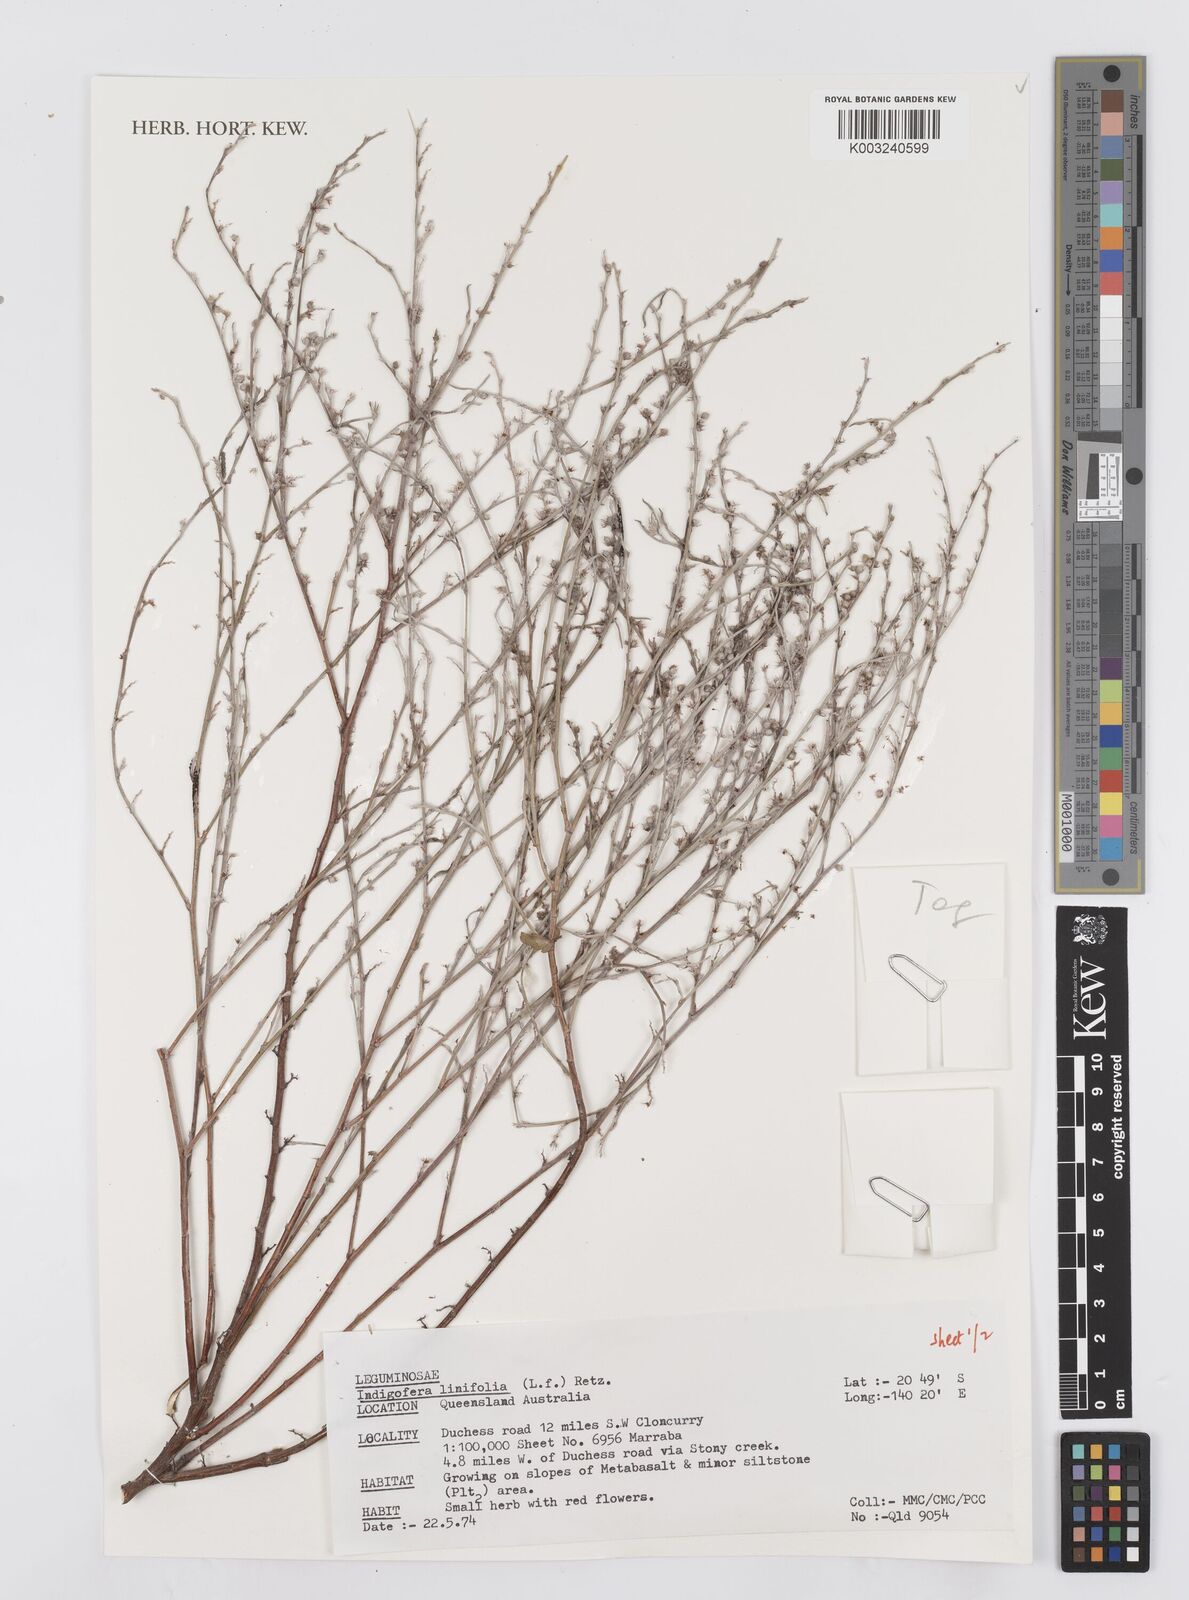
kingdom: Plantae
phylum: Tracheophyta
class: Magnoliopsida
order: Fabales
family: Fabaceae
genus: Indigofera
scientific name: Indigofera linifolia
